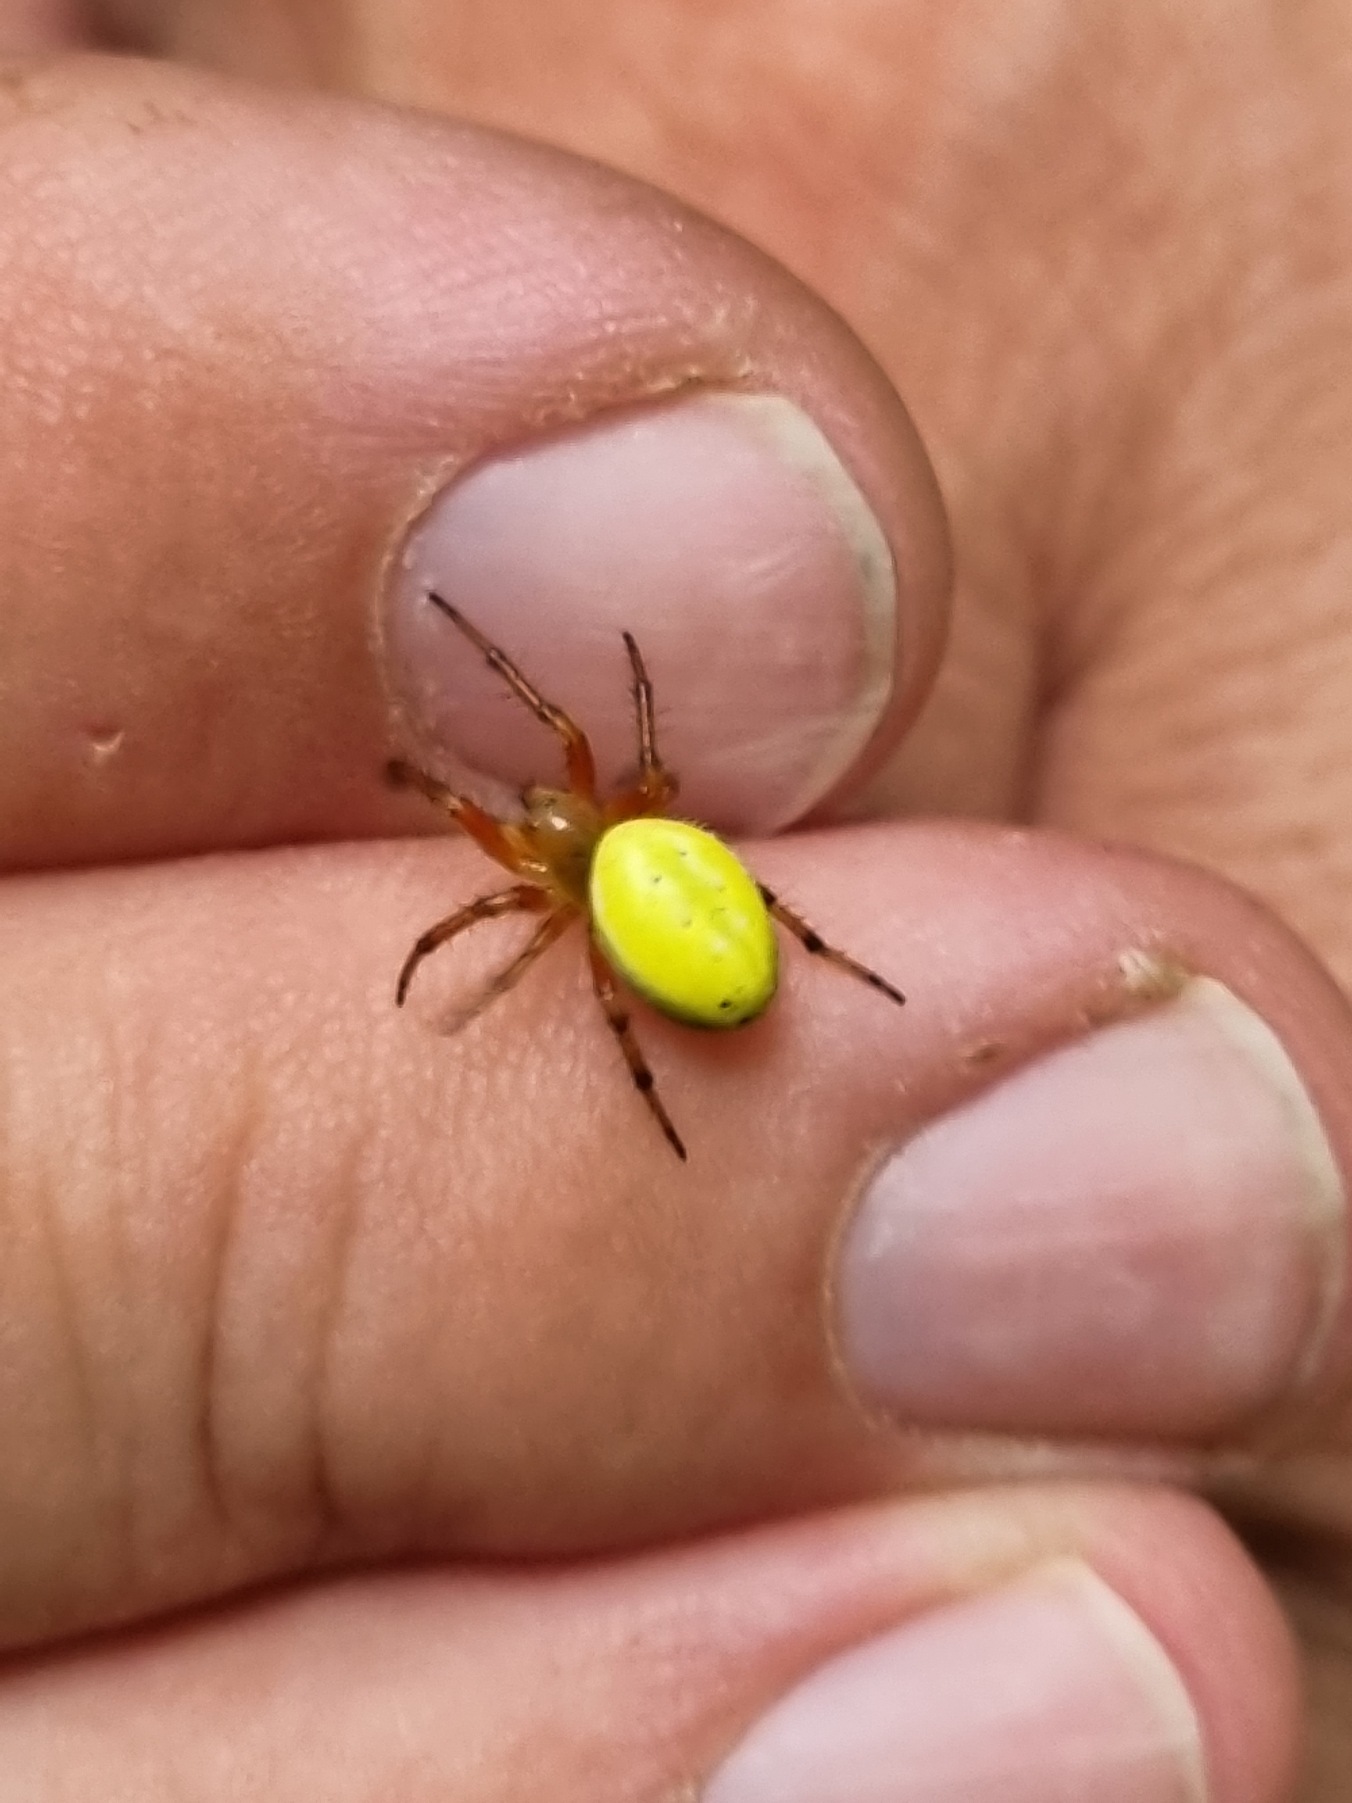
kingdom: Animalia
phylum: Arthropoda
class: Arachnida
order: Araneae
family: Araneidae
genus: Araniella
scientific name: Araniella alpica
